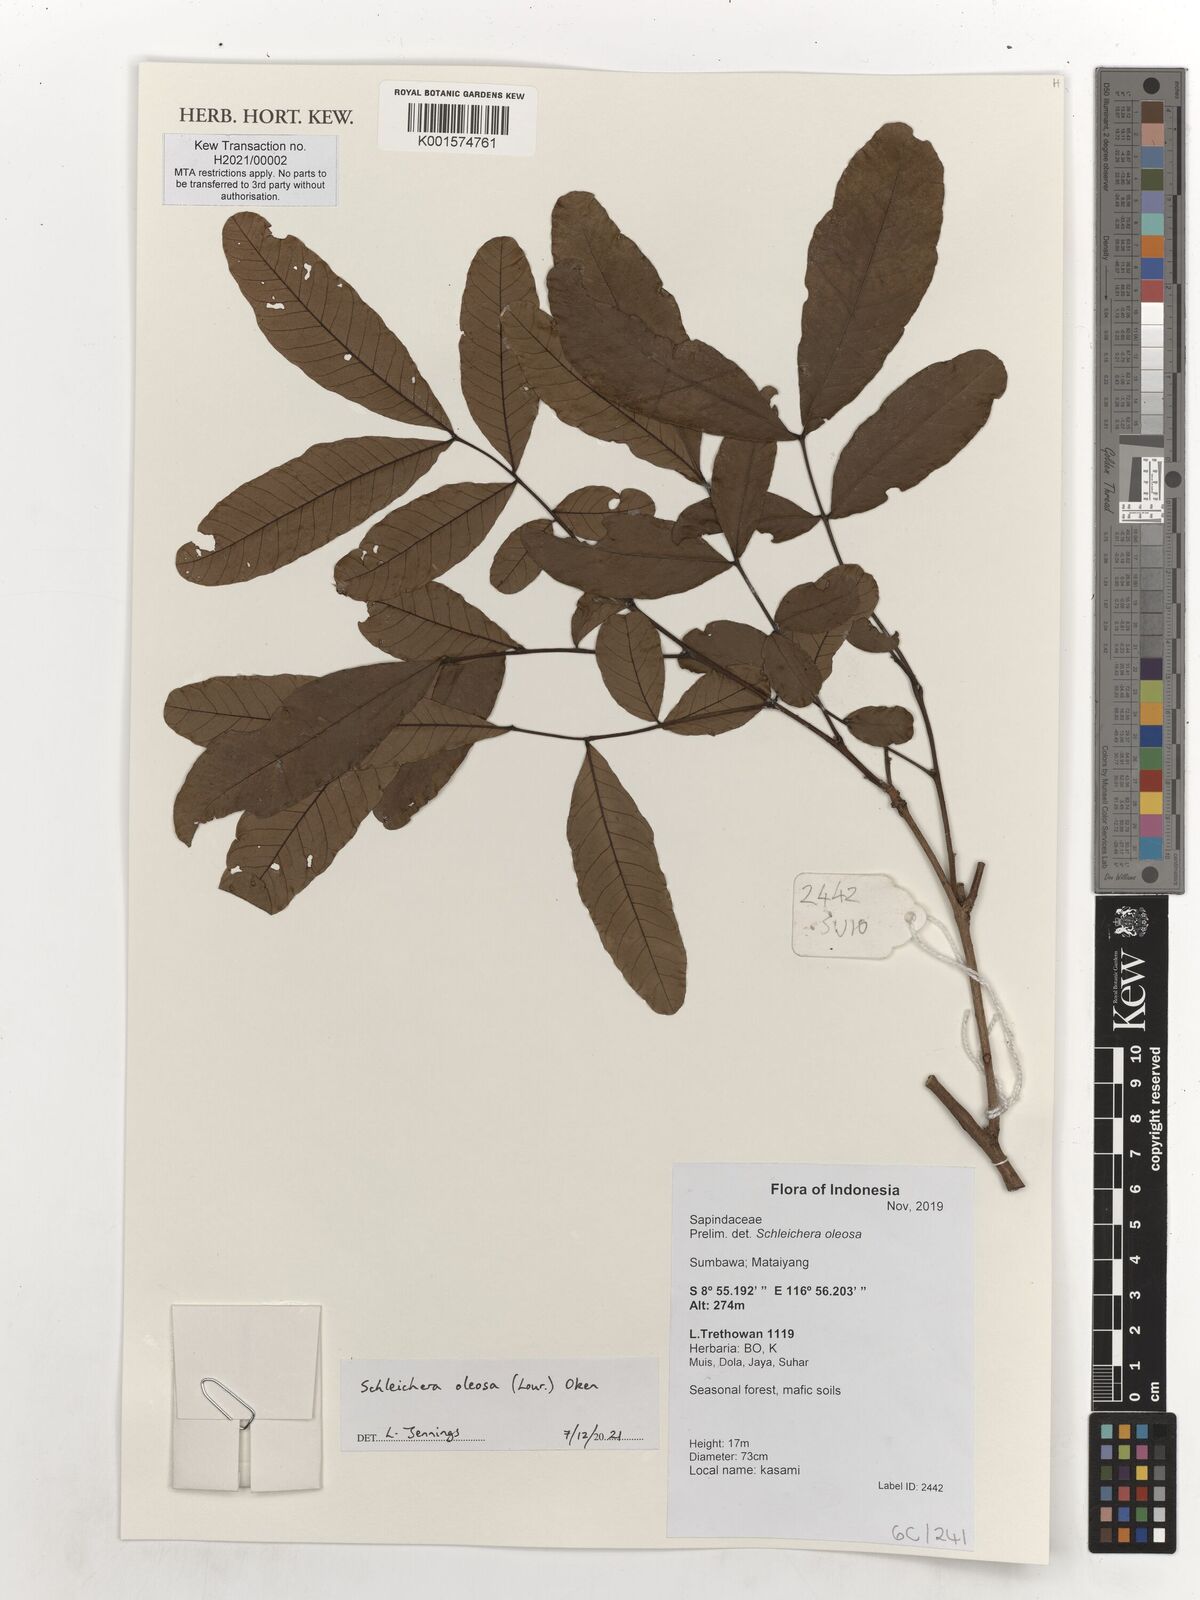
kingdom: Plantae
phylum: Tracheophyta
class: Magnoliopsida
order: Sapindales
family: Sapindaceae
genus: Schleichera
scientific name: Schleichera oleosa
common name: Malay lactree
